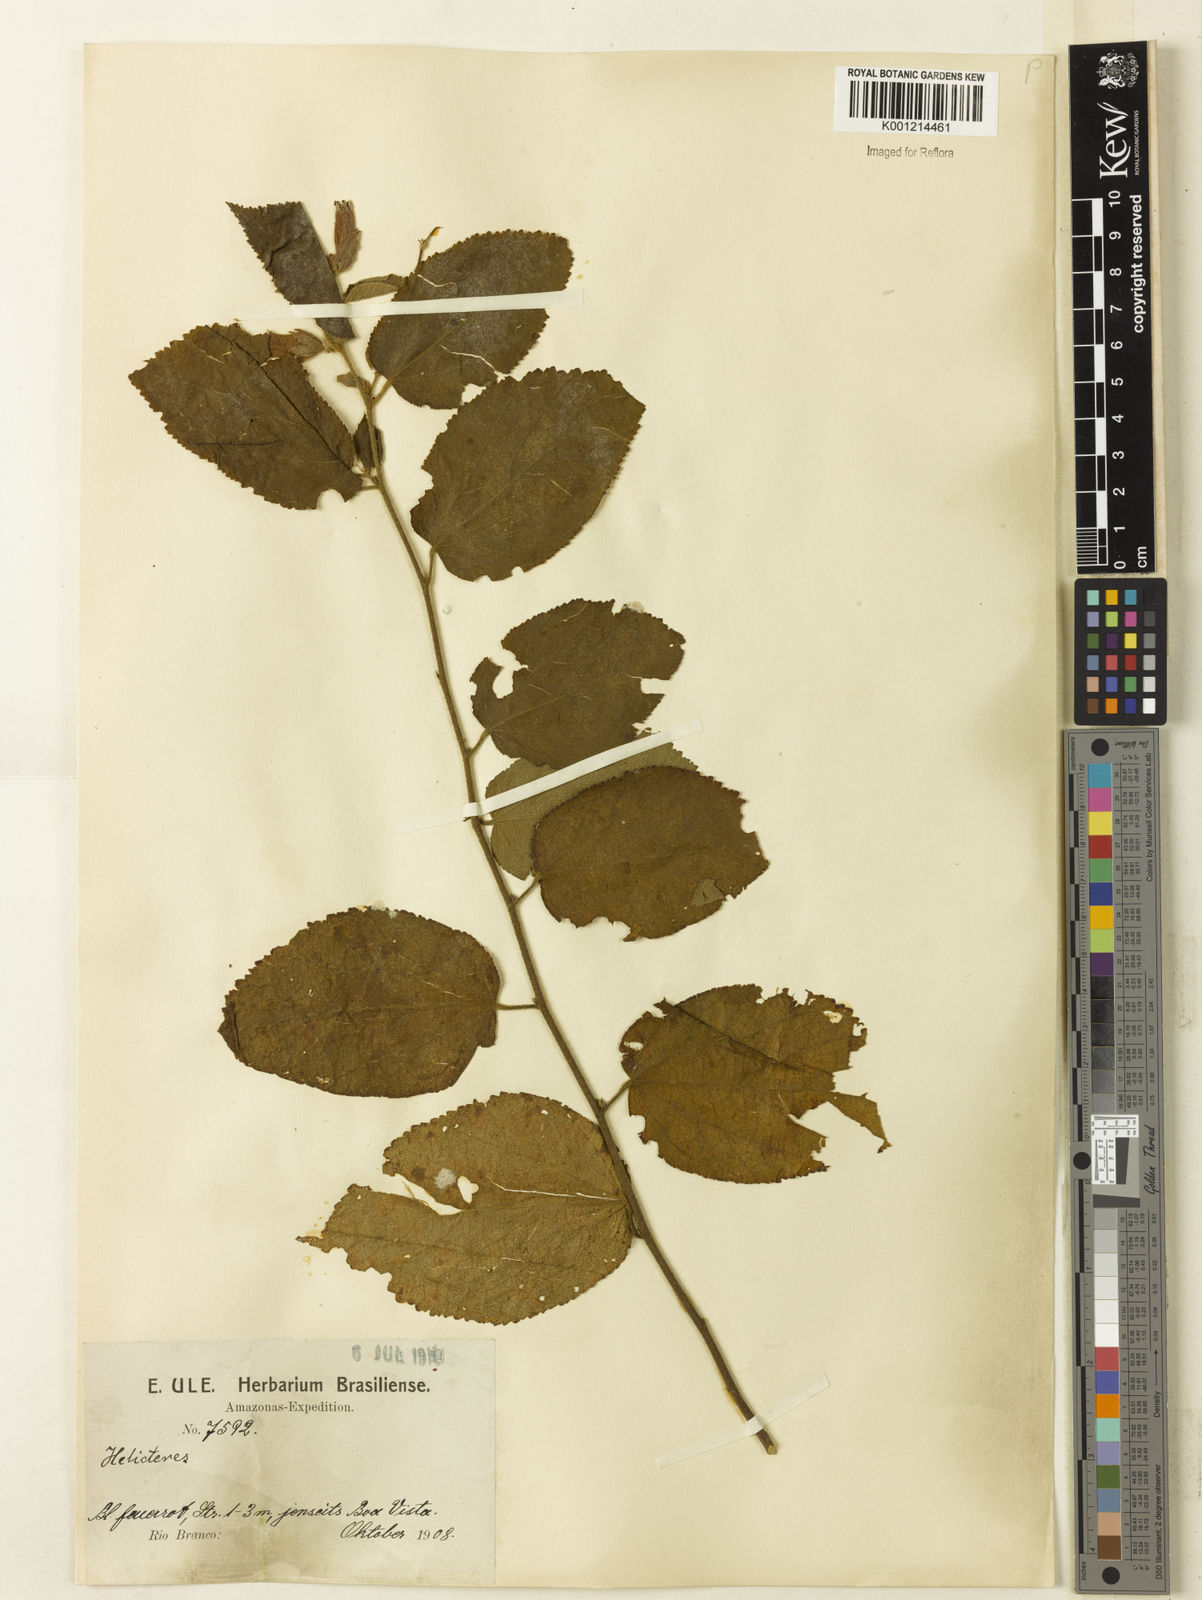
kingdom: Plantae
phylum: Tracheophyta
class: Magnoliopsida
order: Malvales
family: Malvaceae
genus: Helicteres
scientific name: Helicteres
